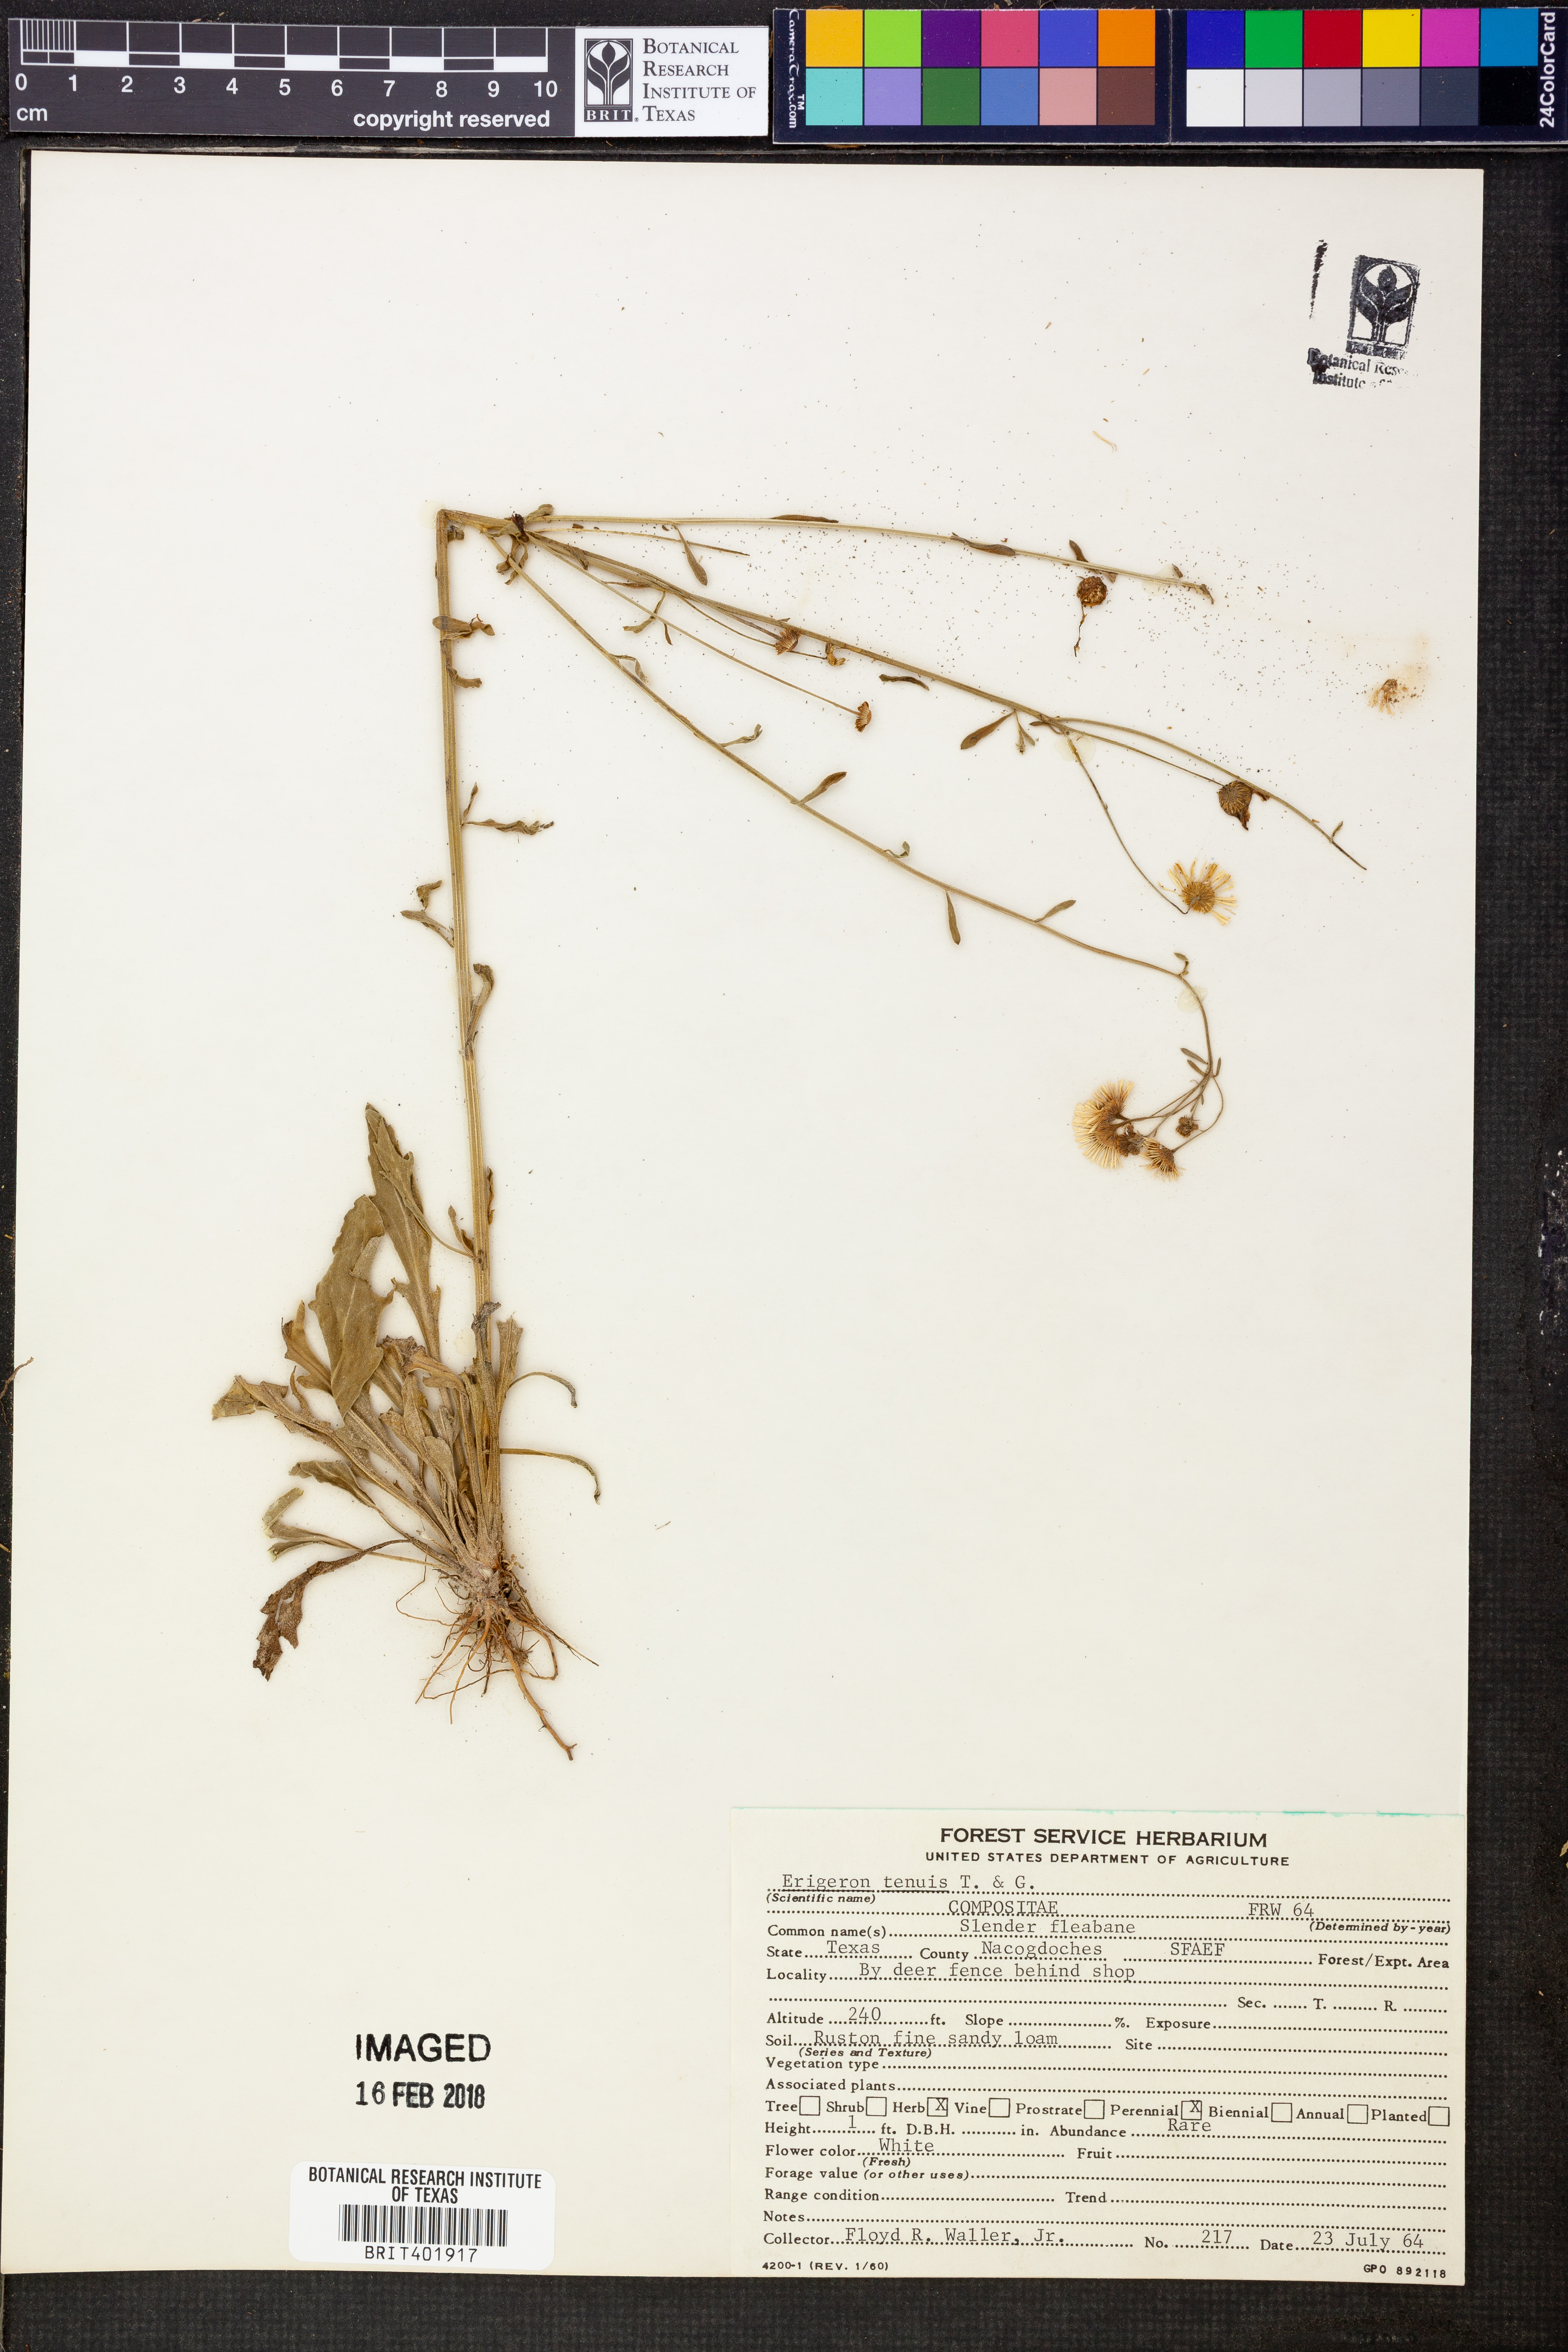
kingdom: Plantae
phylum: Tracheophyta
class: Magnoliopsida
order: Asterales
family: Asteraceae
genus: Erigeron
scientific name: Erigeron tenuis
